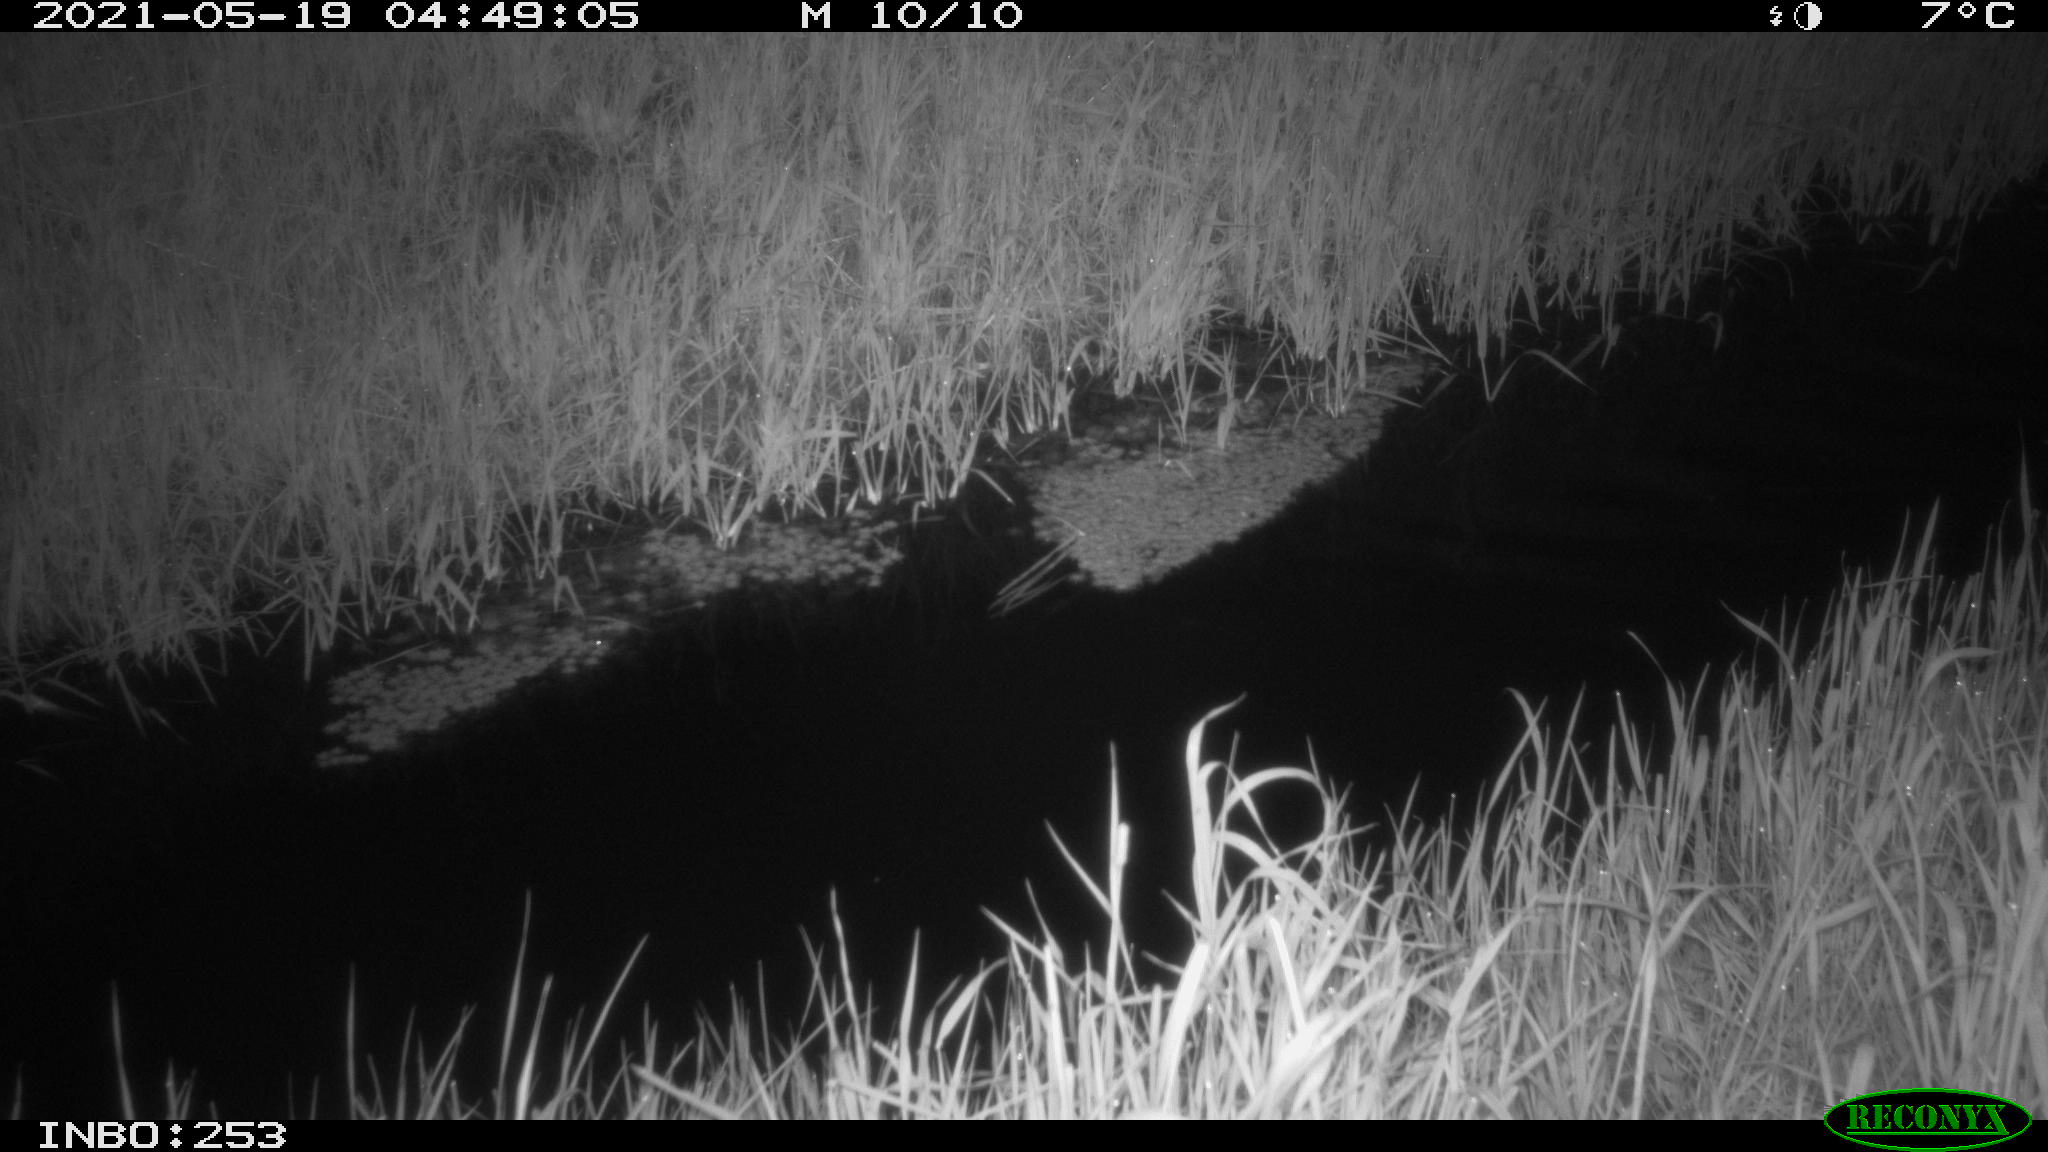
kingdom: Animalia
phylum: Chordata
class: Aves
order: Anseriformes
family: Anatidae
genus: Anas
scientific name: Anas platyrhynchos
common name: Mallard
